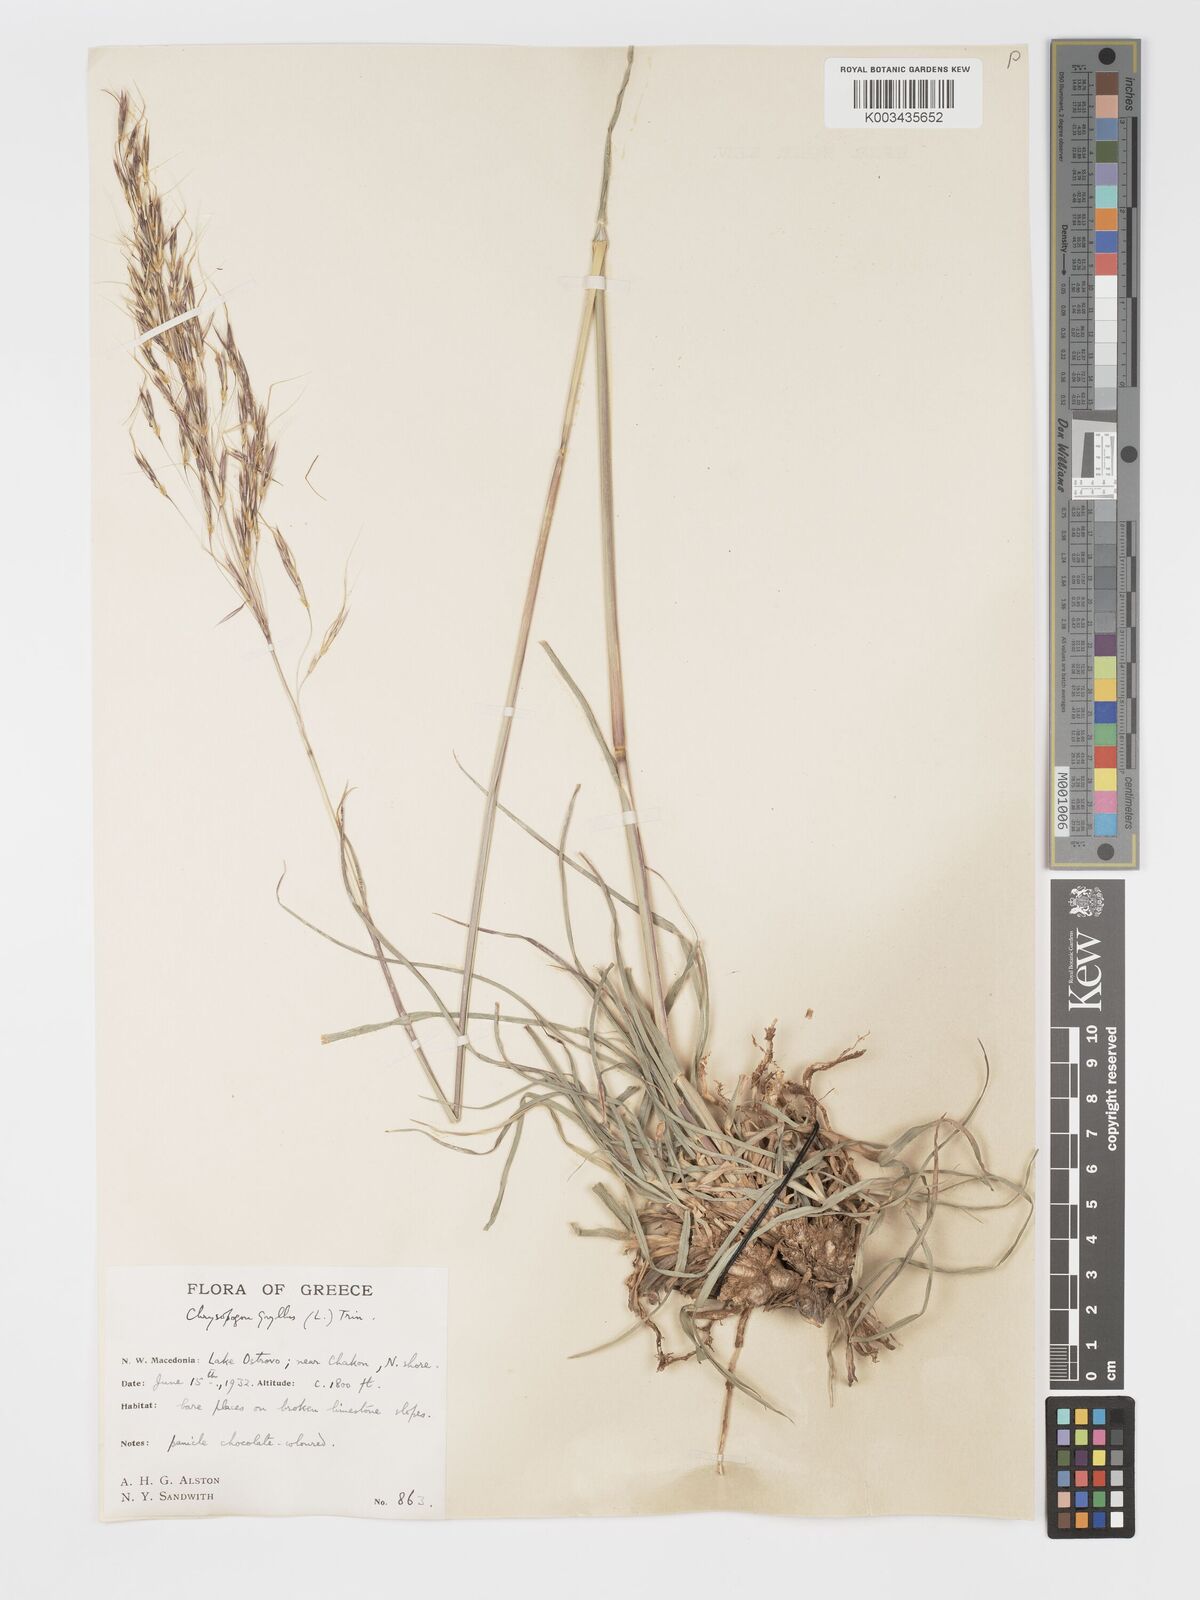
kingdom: Plantae
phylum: Tracheophyta
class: Liliopsida
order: Poales
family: Poaceae
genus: Chrysopogon
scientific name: Chrysopogon gryllus
